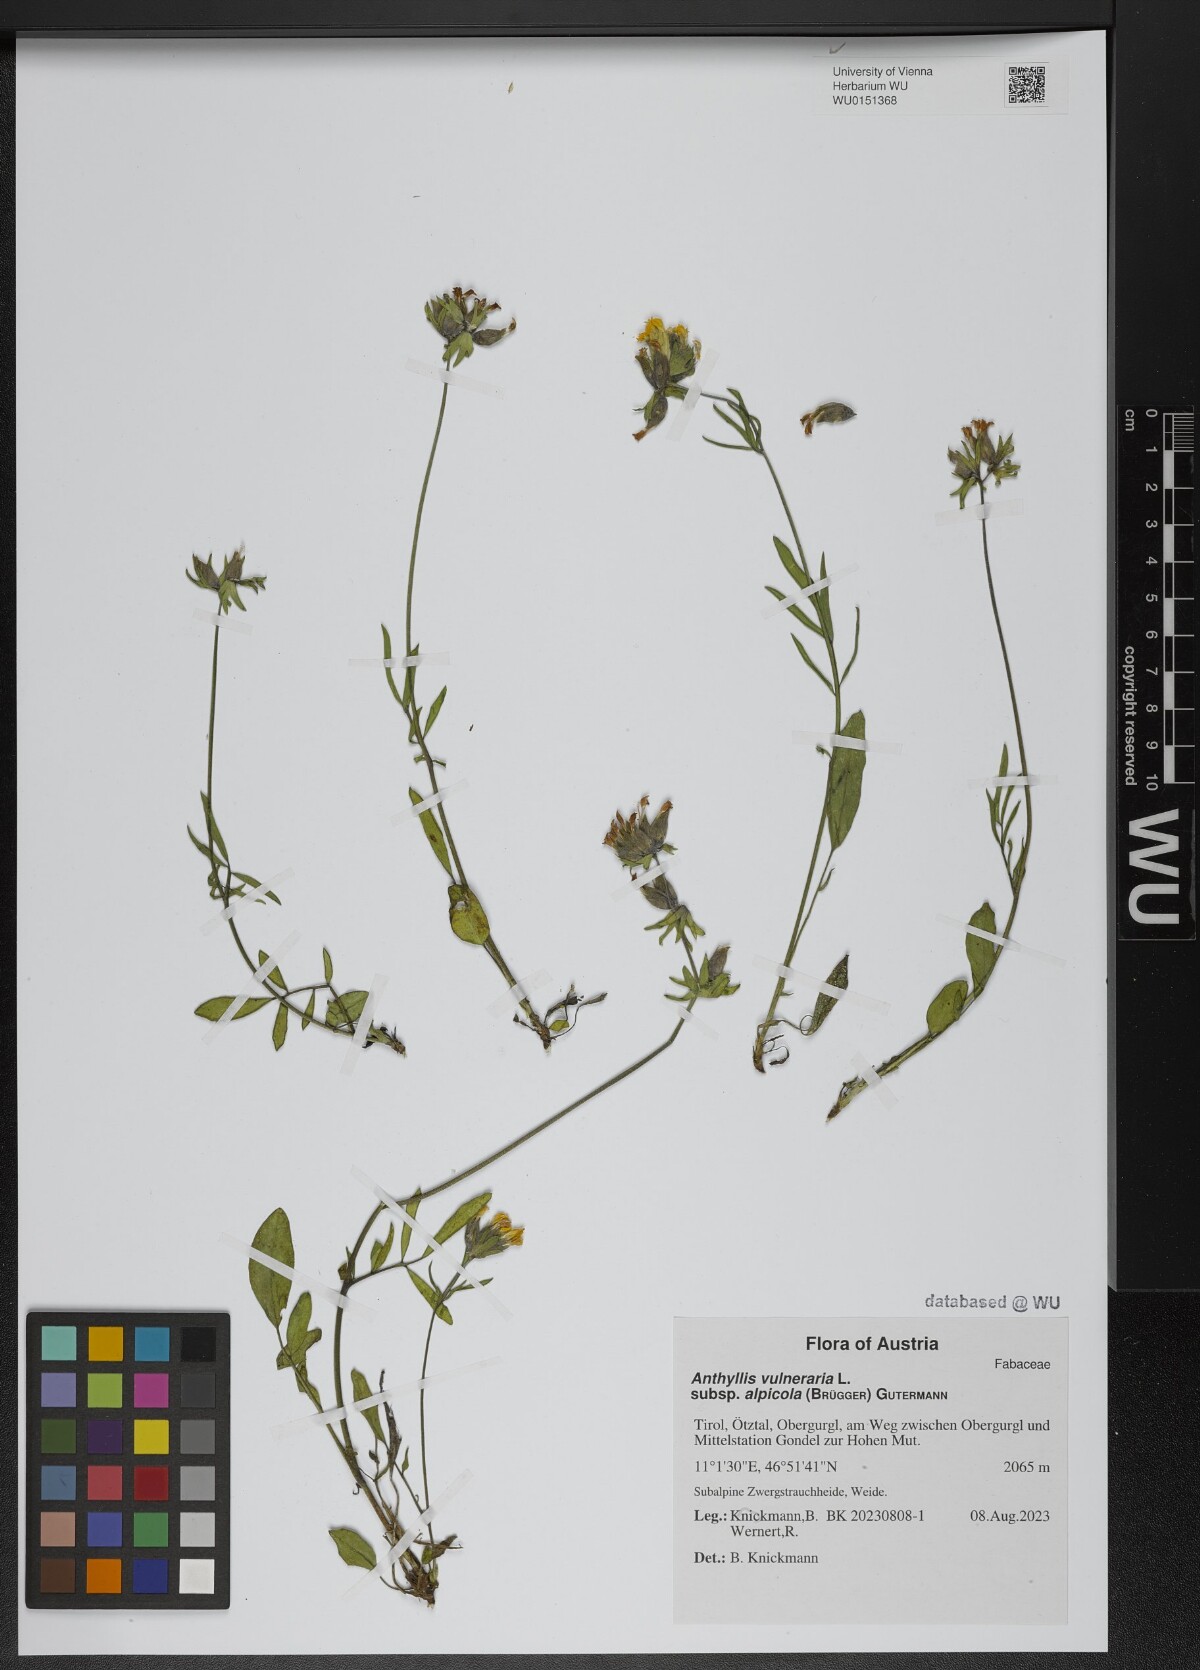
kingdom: Plantae
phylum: Tracheophyta
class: Magnoliopsida
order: Fabales
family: Fabaceae
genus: Anthyllis
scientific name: Anthyllis vulneraria
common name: Kidney vetch
